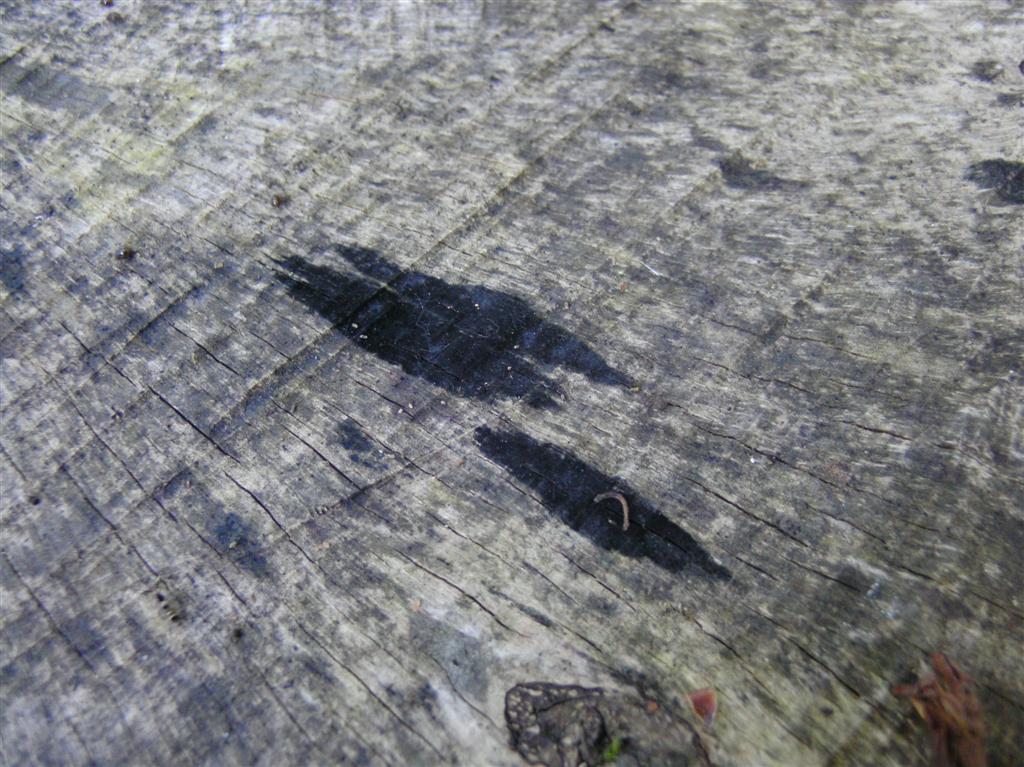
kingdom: Fungi
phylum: Ascomycota
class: Leotiomycetes
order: Helotiales
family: Helotiaceae
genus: Bispora
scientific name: Bispora pallescens
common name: måtte-snitskive
